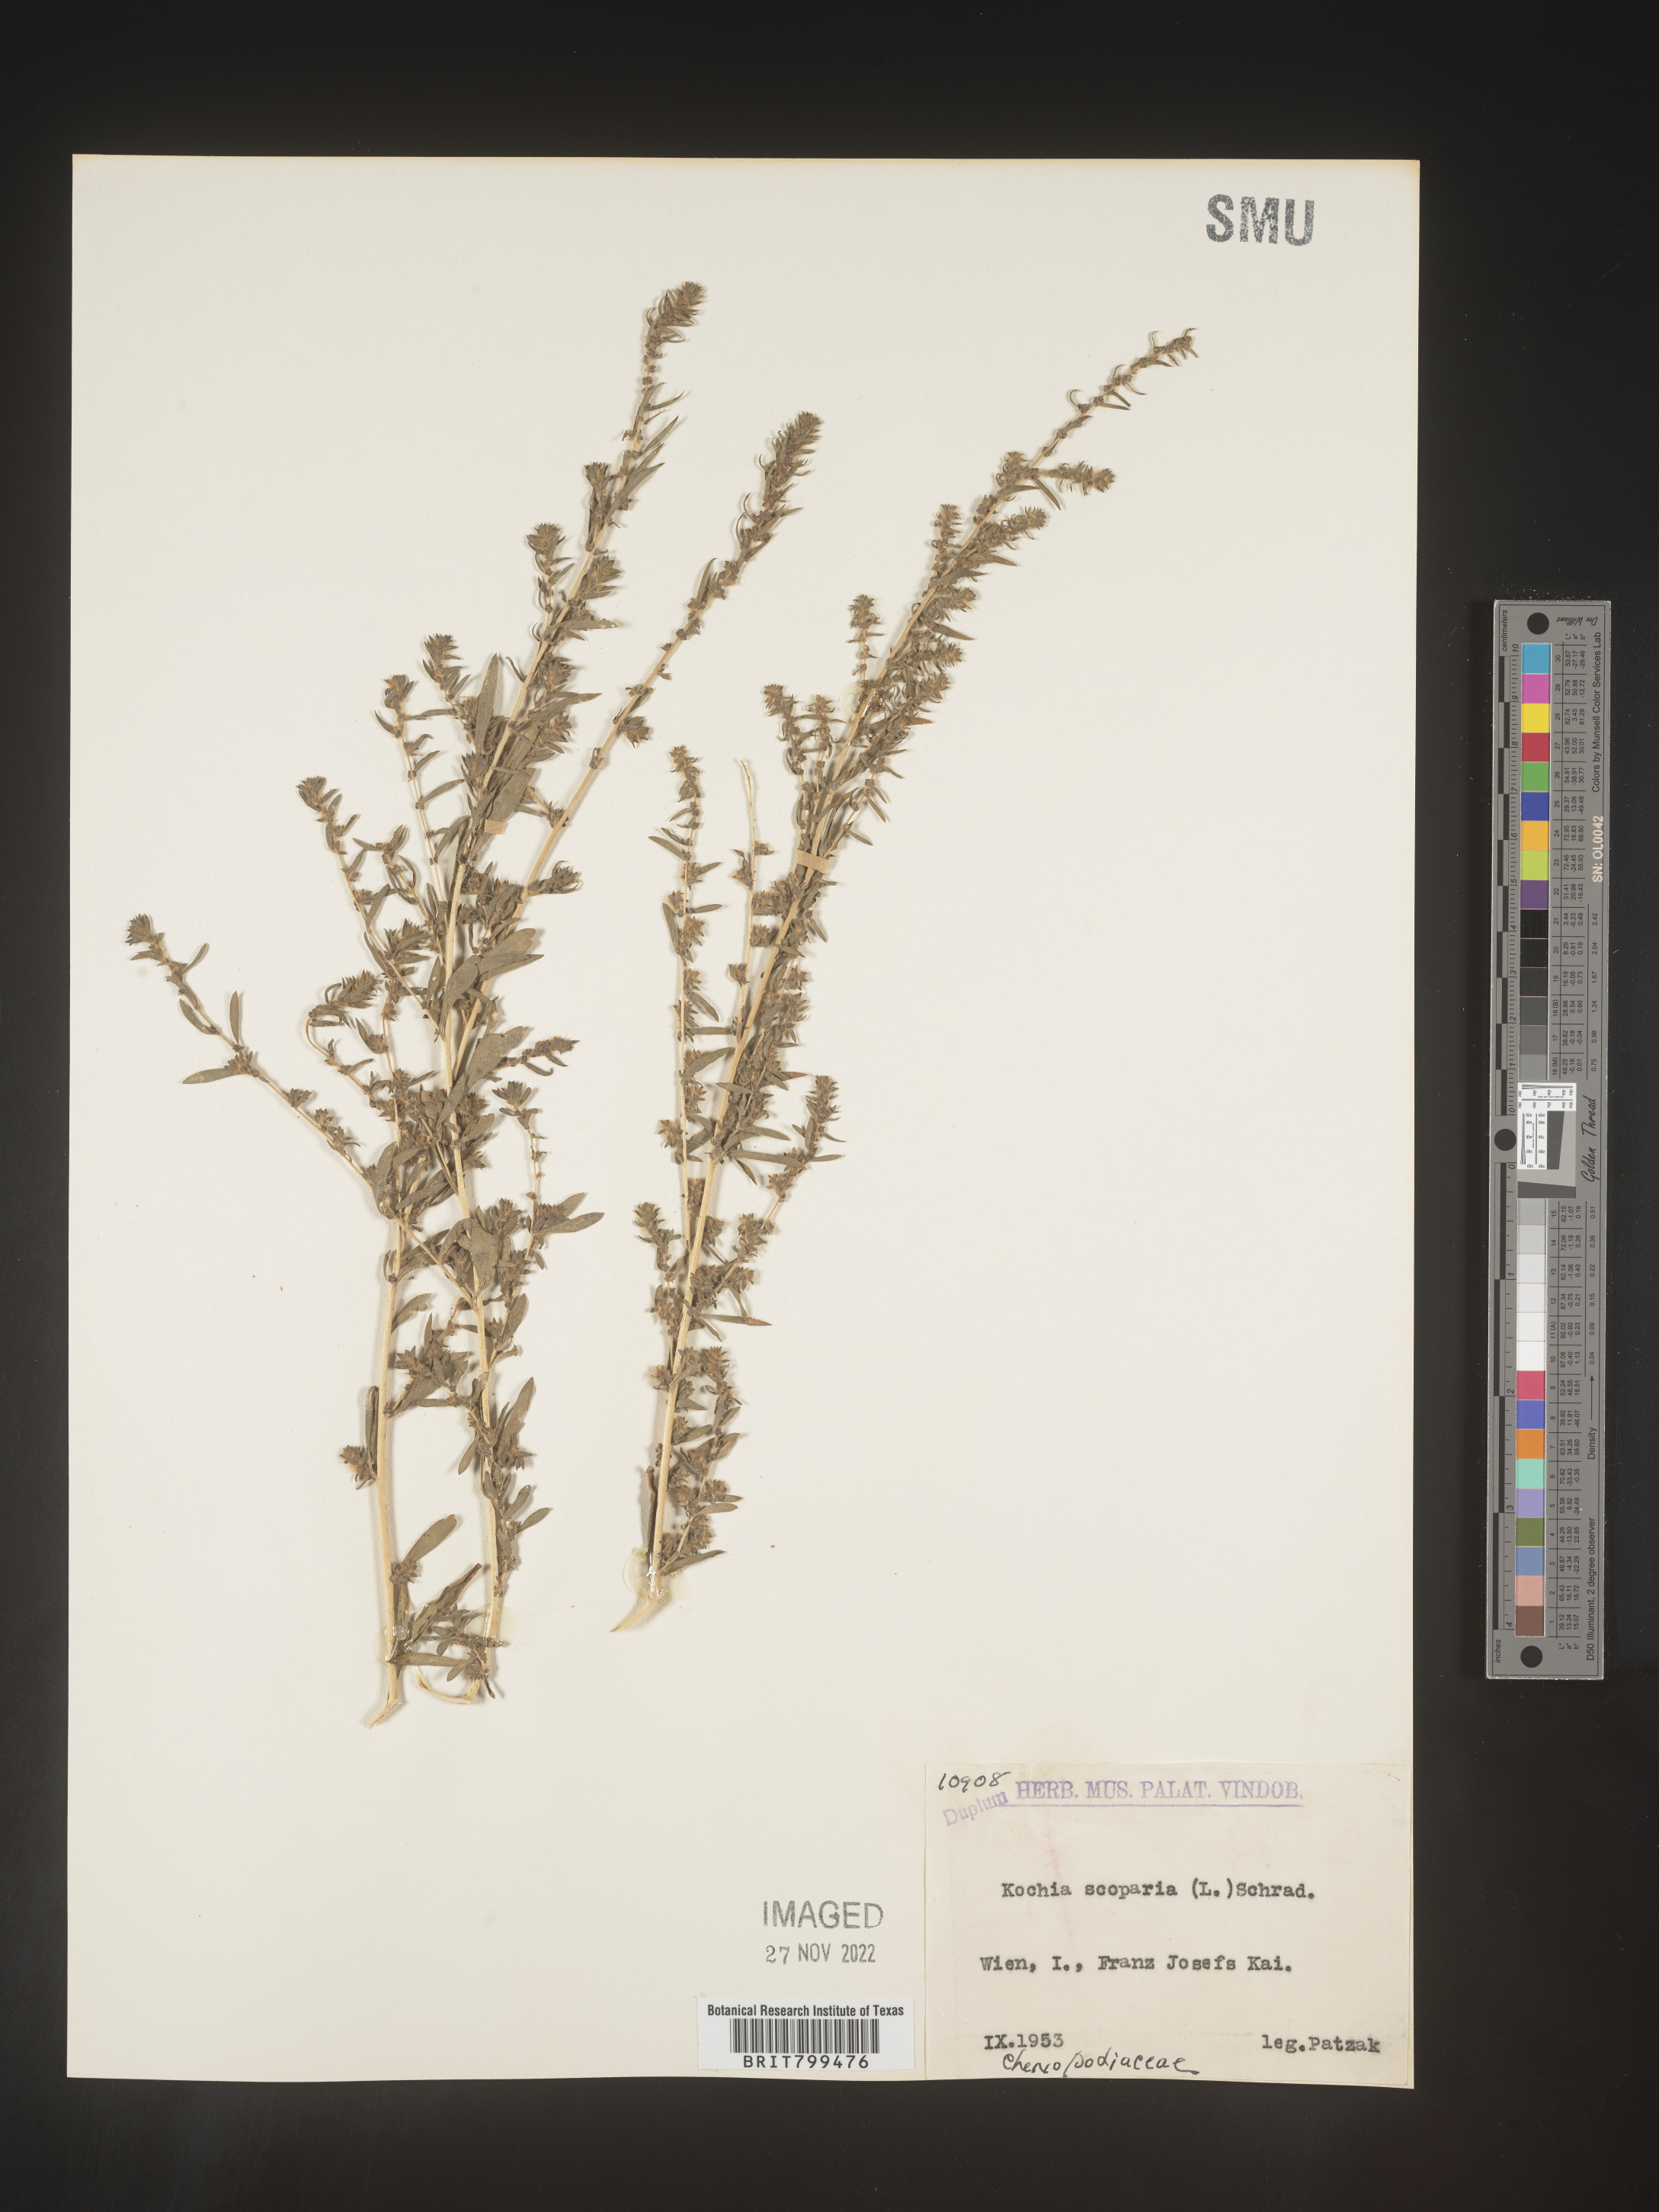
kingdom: Plantae
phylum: Tracheophyta
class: Magnoliopsida
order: Caryophyllales
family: Amaranthaceae
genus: Bassia
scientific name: Bassia
